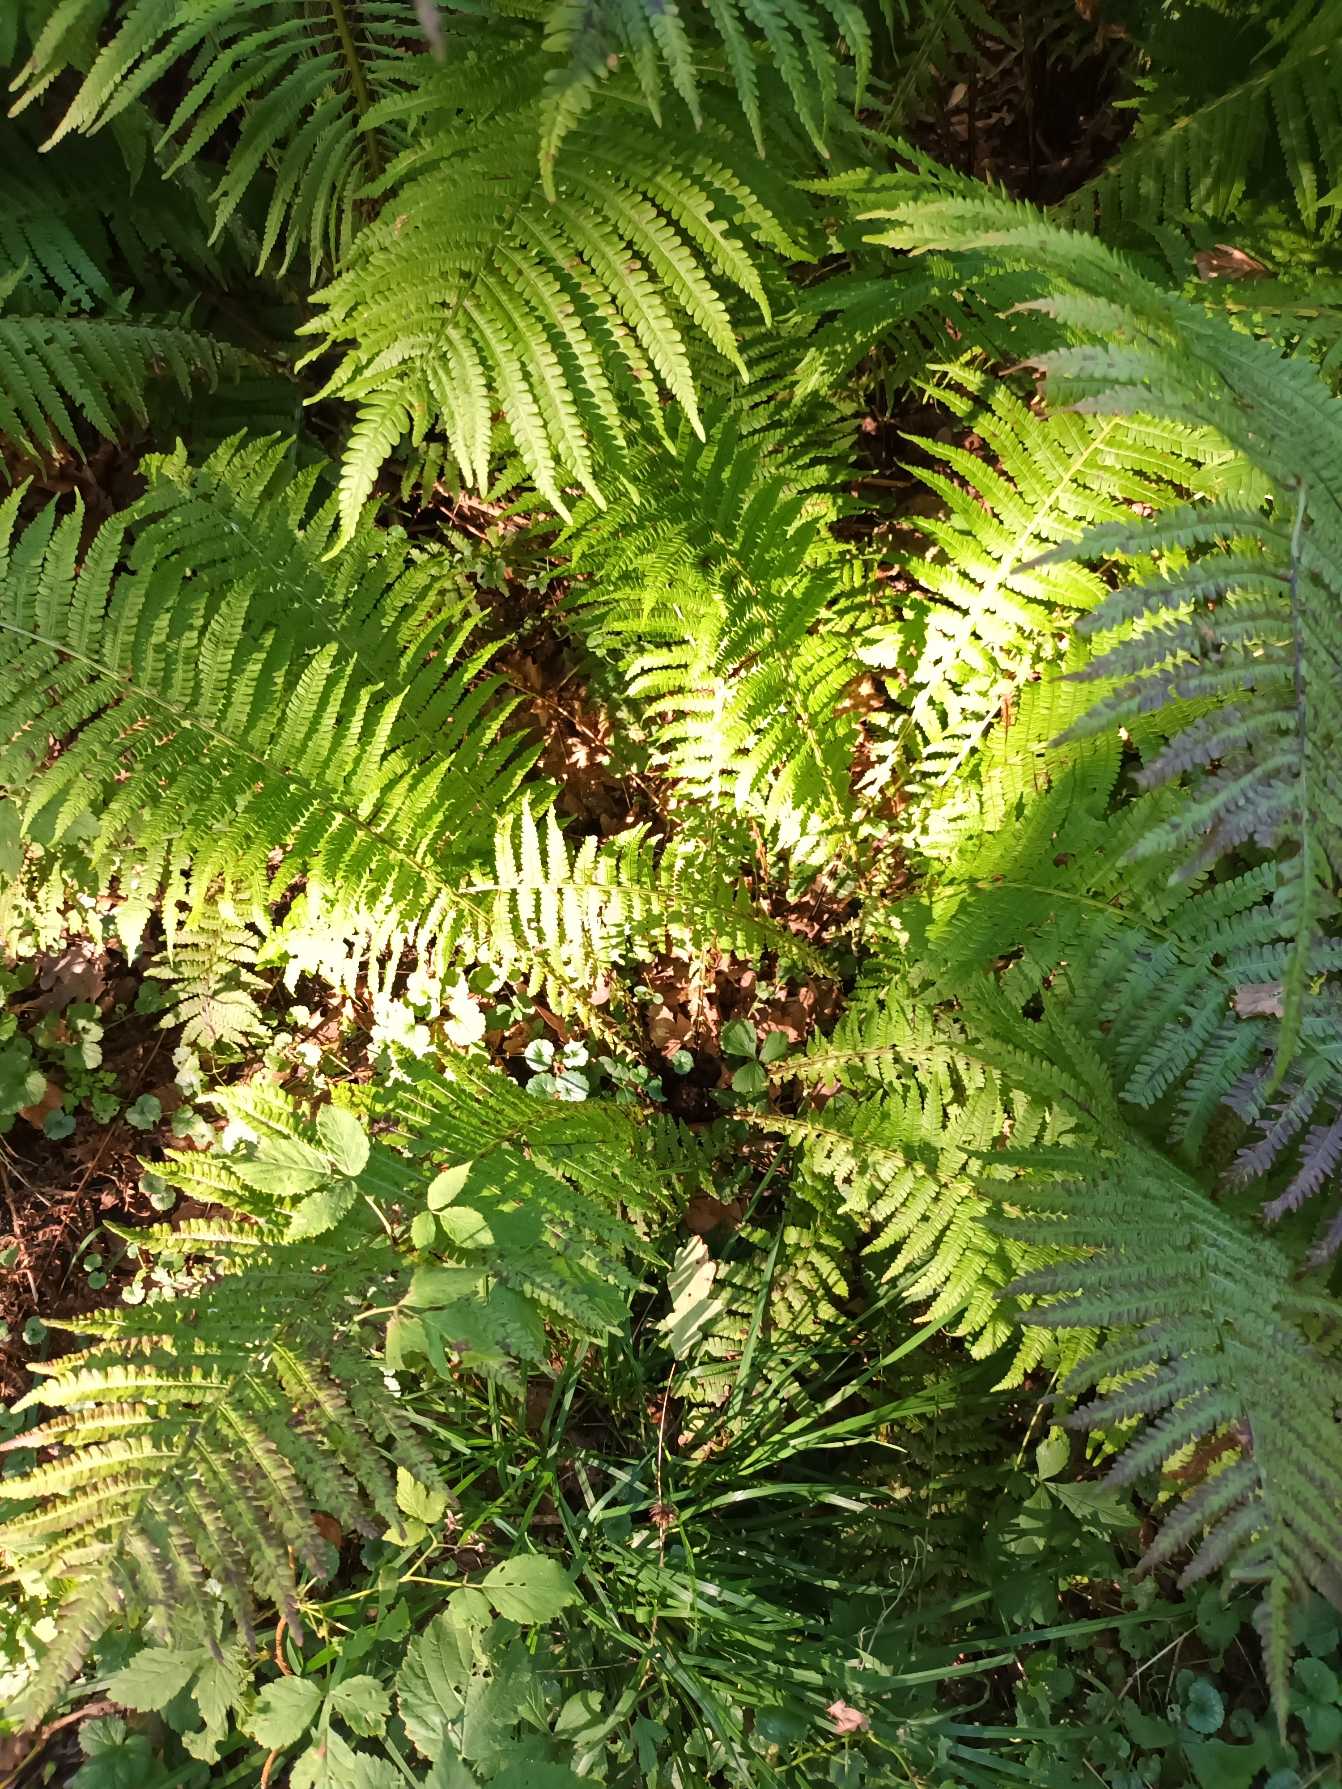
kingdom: Plantae
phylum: Tracheophyta
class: Polypodiopsida
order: Polypodiales
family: Onocleaceae
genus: Matteuccia
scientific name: Matteuccia struthiopteris
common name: Strudsvinge
